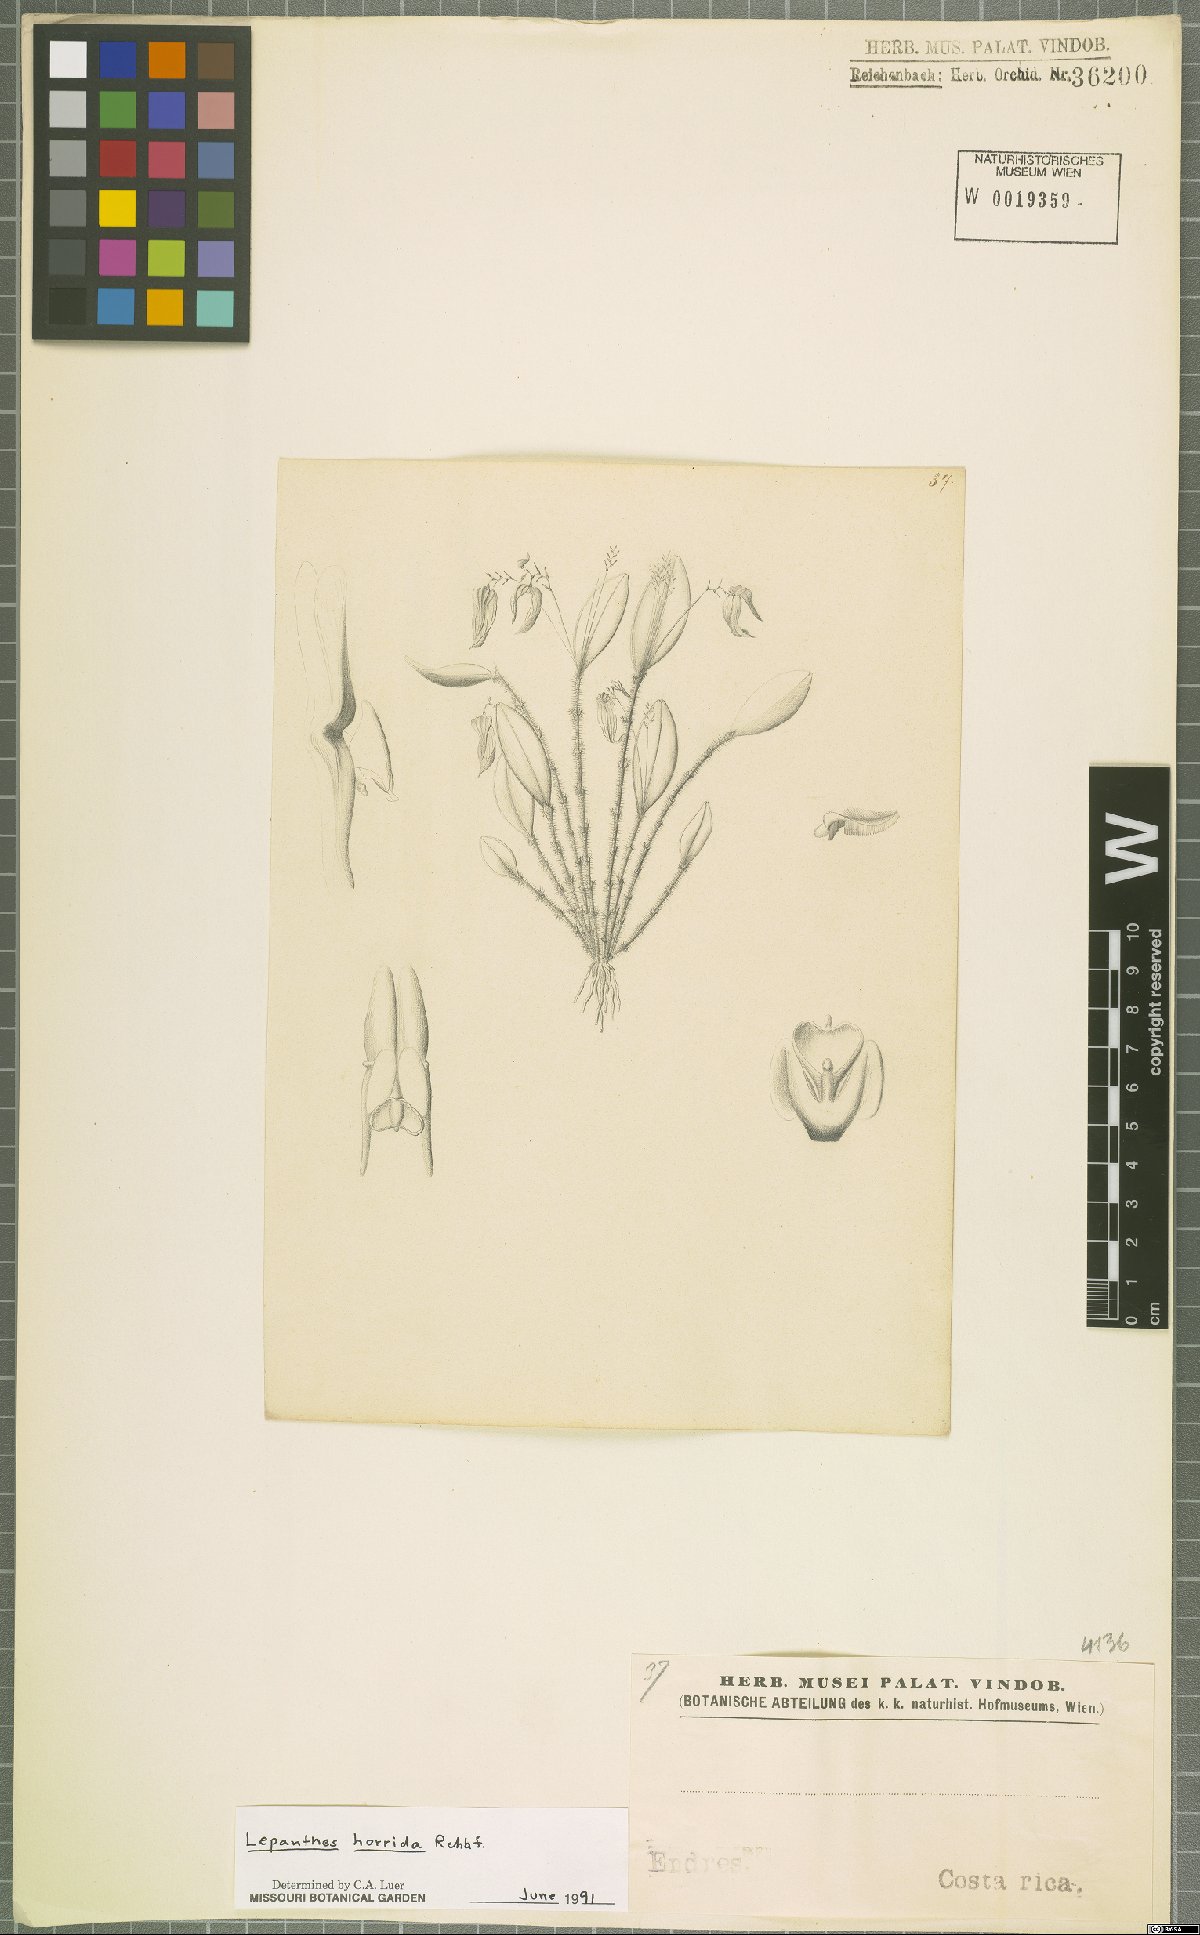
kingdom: Plantae
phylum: Tracheophyta
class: Liliopsida
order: Asparagales
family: Orchidaceae
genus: Lepanthes
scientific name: Lepanthes horrida
